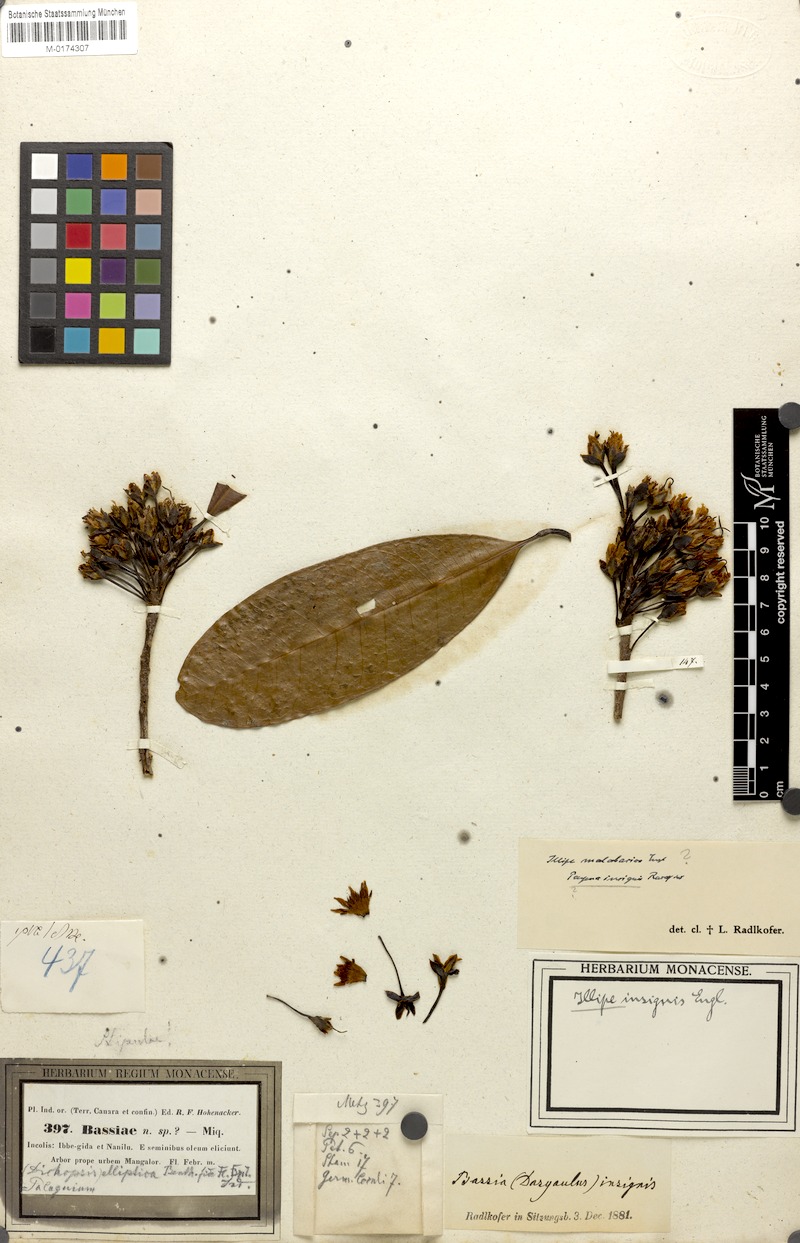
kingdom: Plantae
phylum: Tracheophyta
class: Magnoliopsida
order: Ericales
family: Sapotaceae
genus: Madhuca
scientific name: Madhuca insignis
